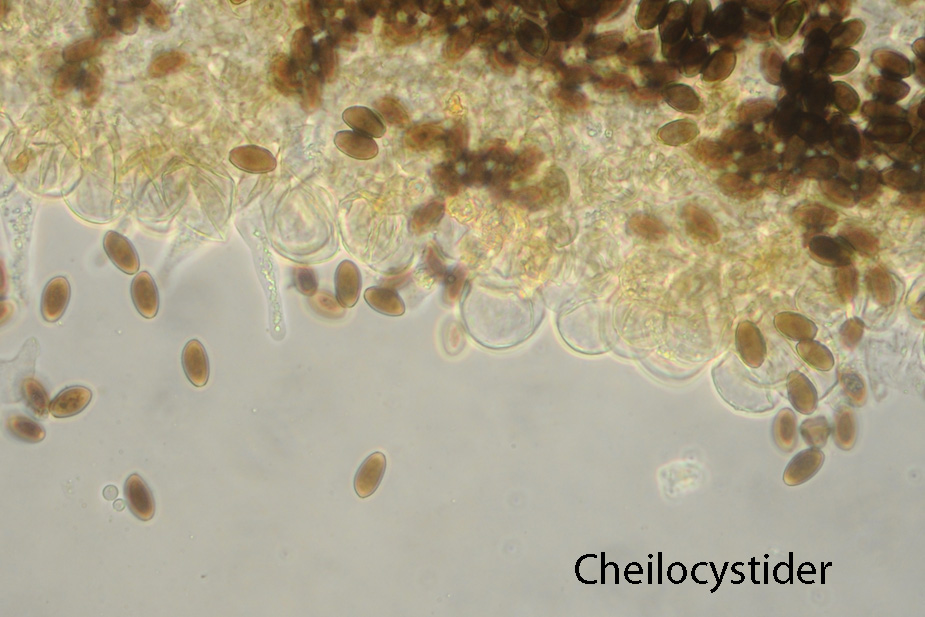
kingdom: Fungi
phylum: Basidiomycota
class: Agaricomycetes
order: Agaricales
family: Psathyrellaceae
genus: Psathyrella
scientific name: Psathyrella orbitarum
